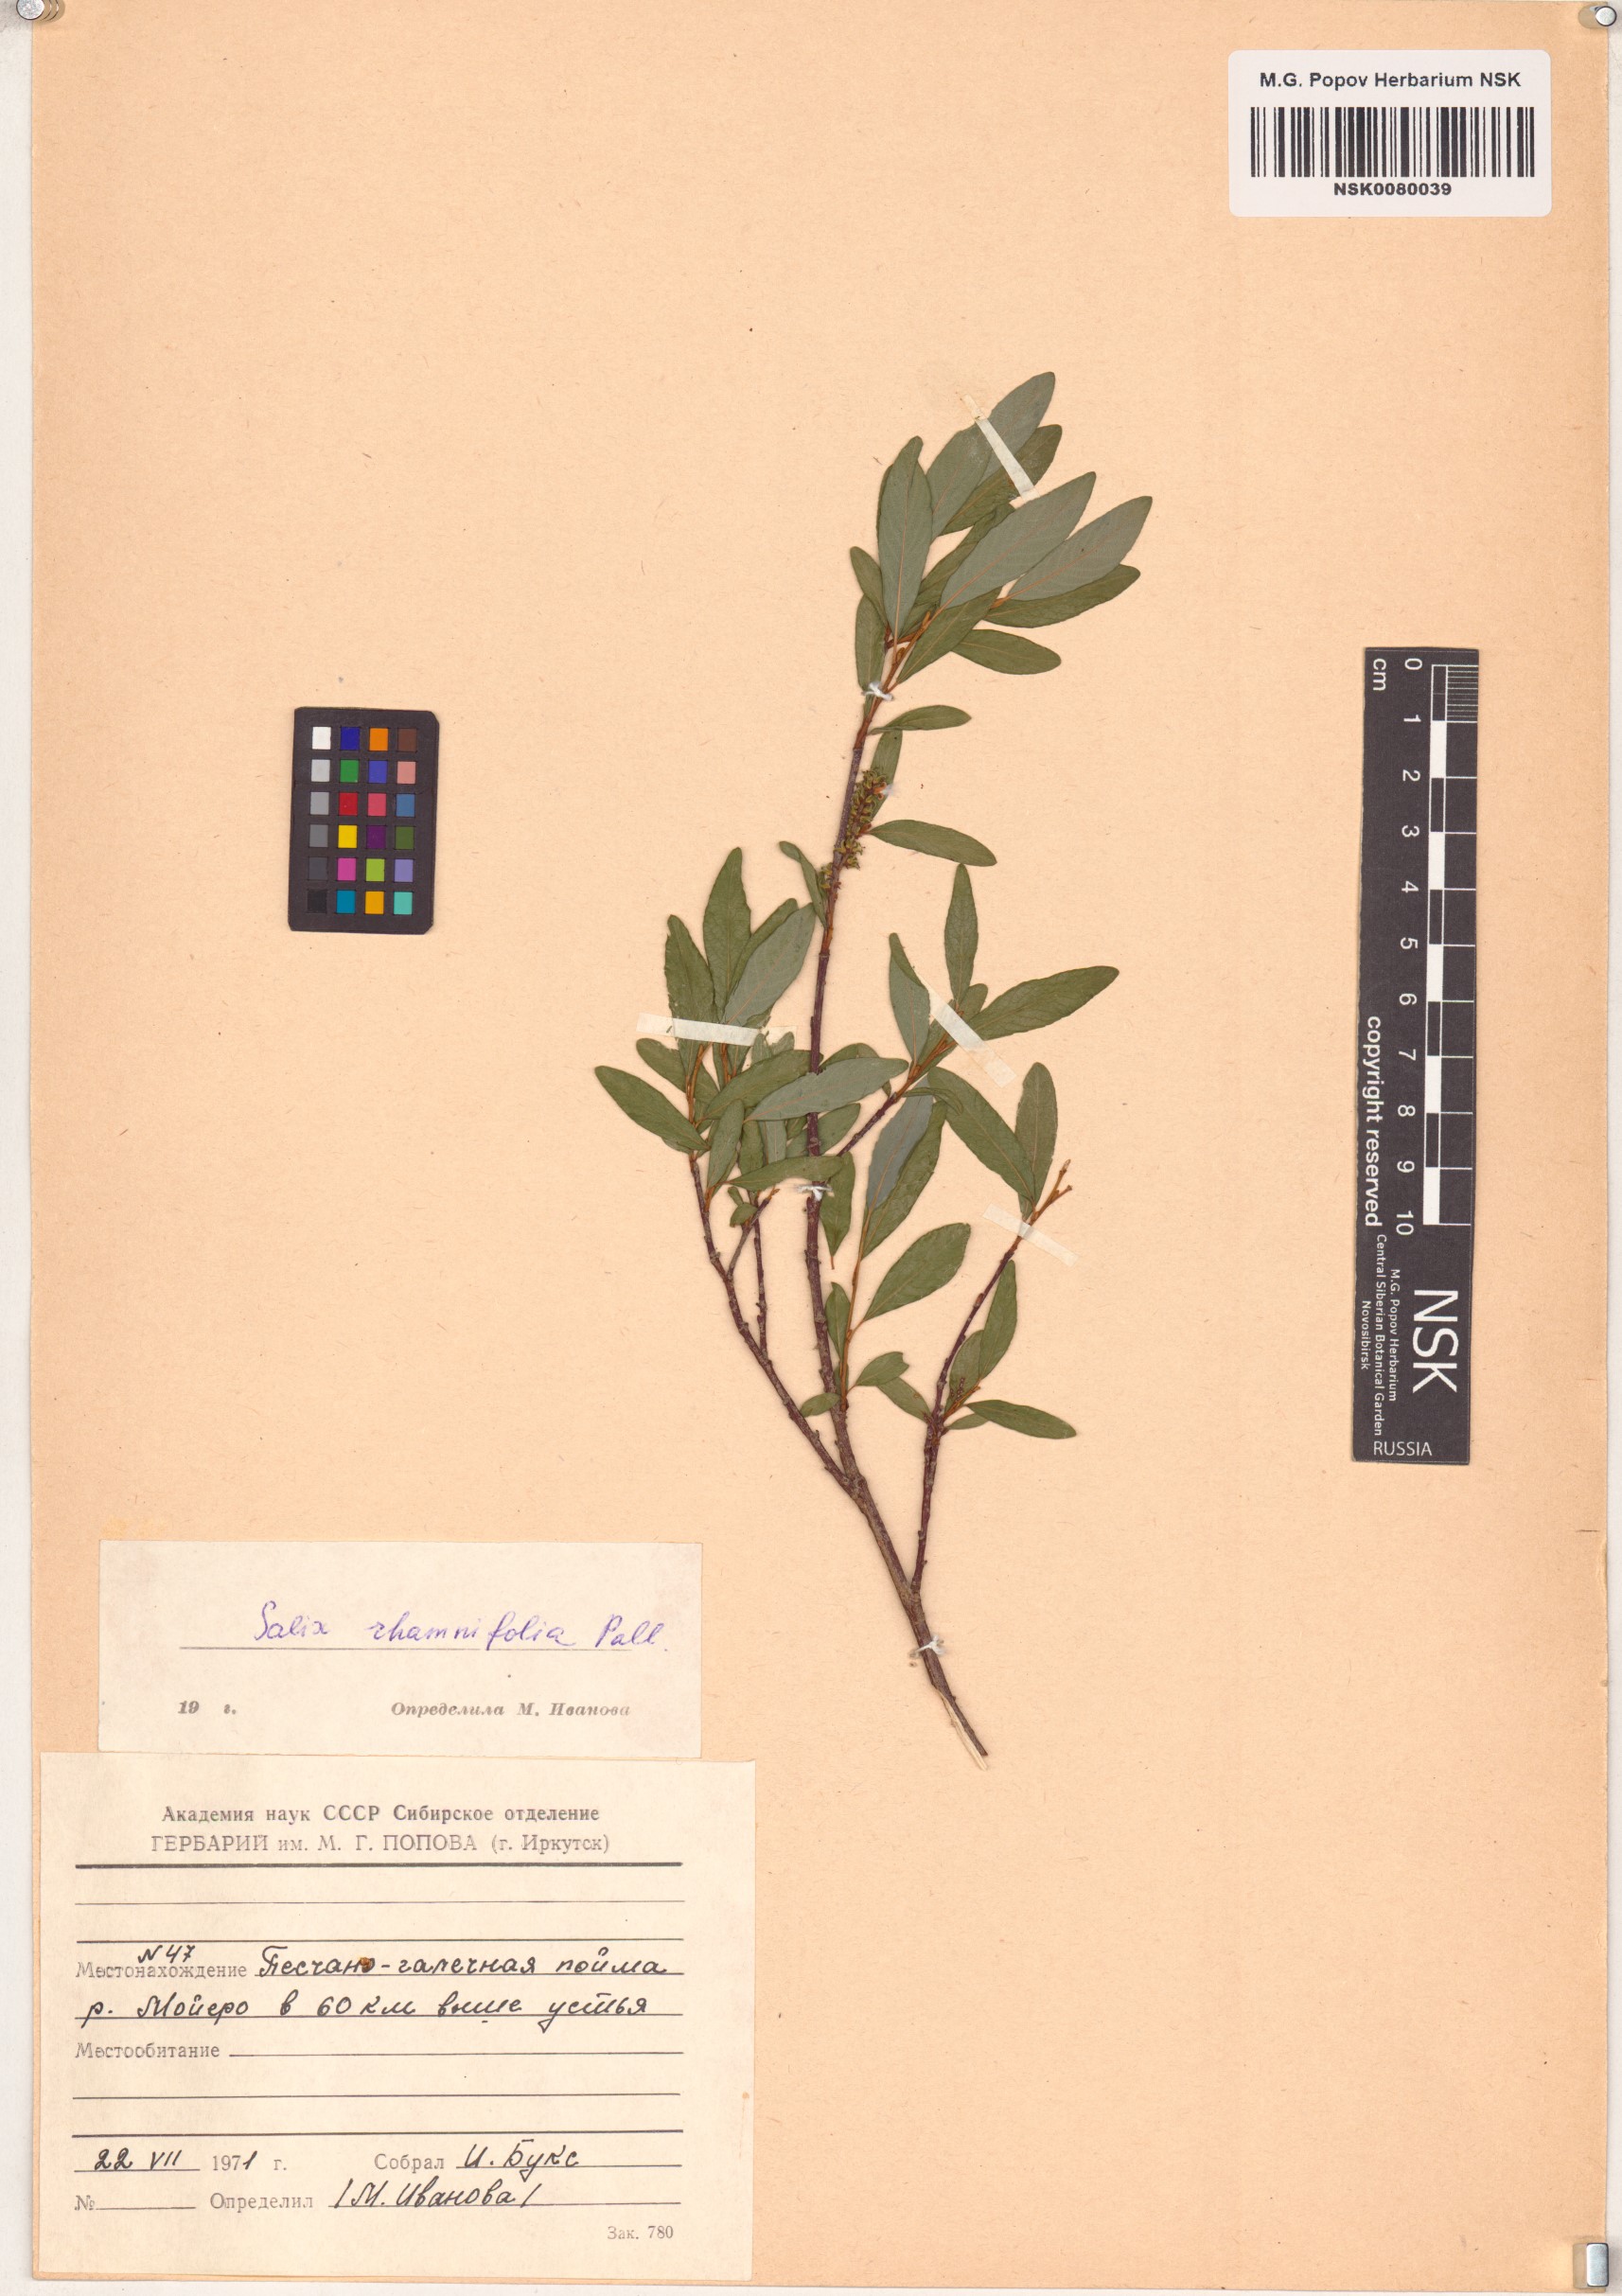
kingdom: Plantae
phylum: Tracheophyta
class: Magnoliopsida
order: Malpighiales
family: Salicaceae
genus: Salix
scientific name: Salix rhamnifolia
